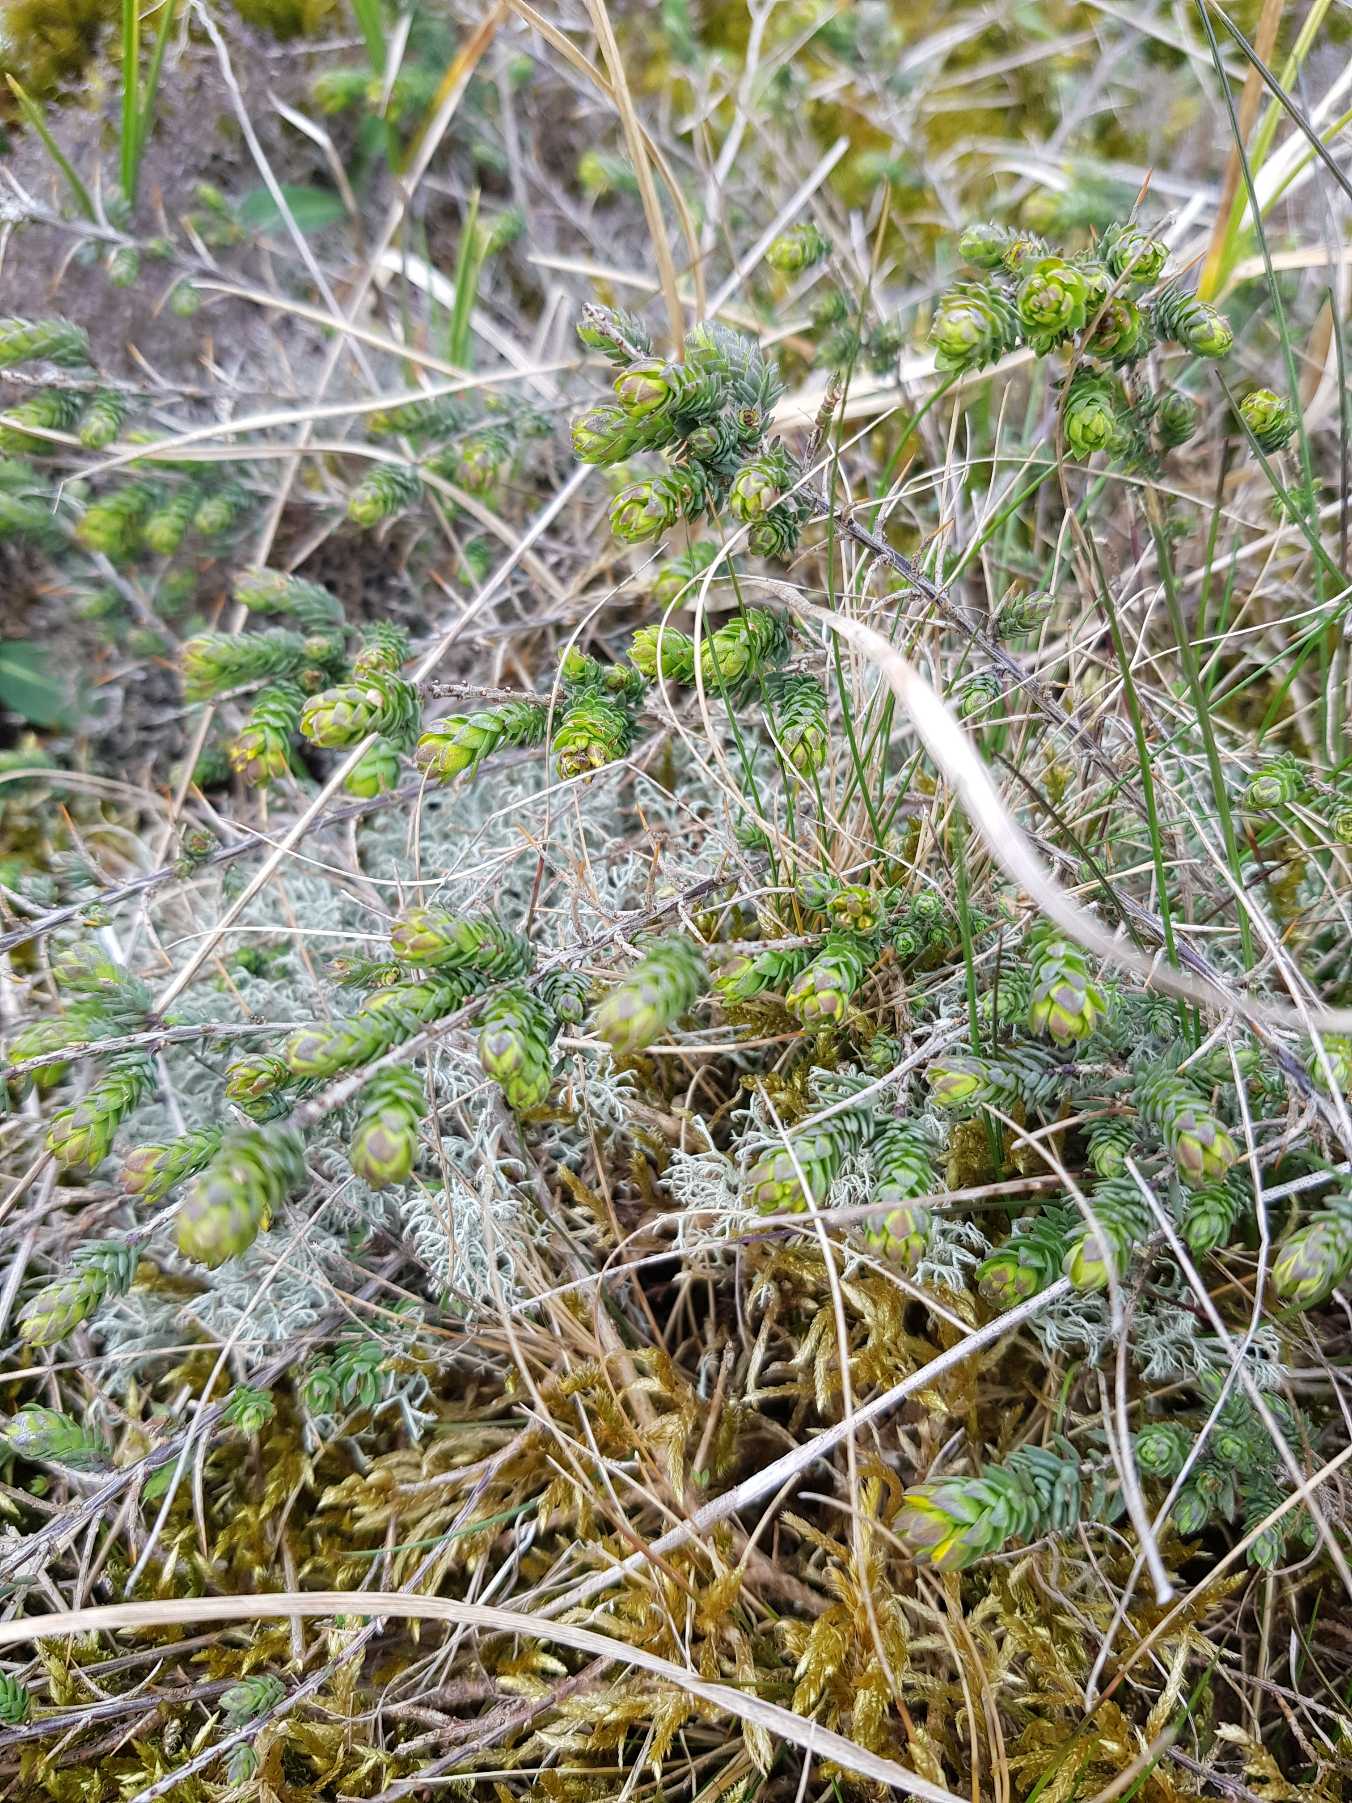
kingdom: Plantae
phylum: Tracheophyta
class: Magnoliopsida
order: Fabales
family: Fabaceae
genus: Genista
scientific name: Genista anglica
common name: Engelsk visse
